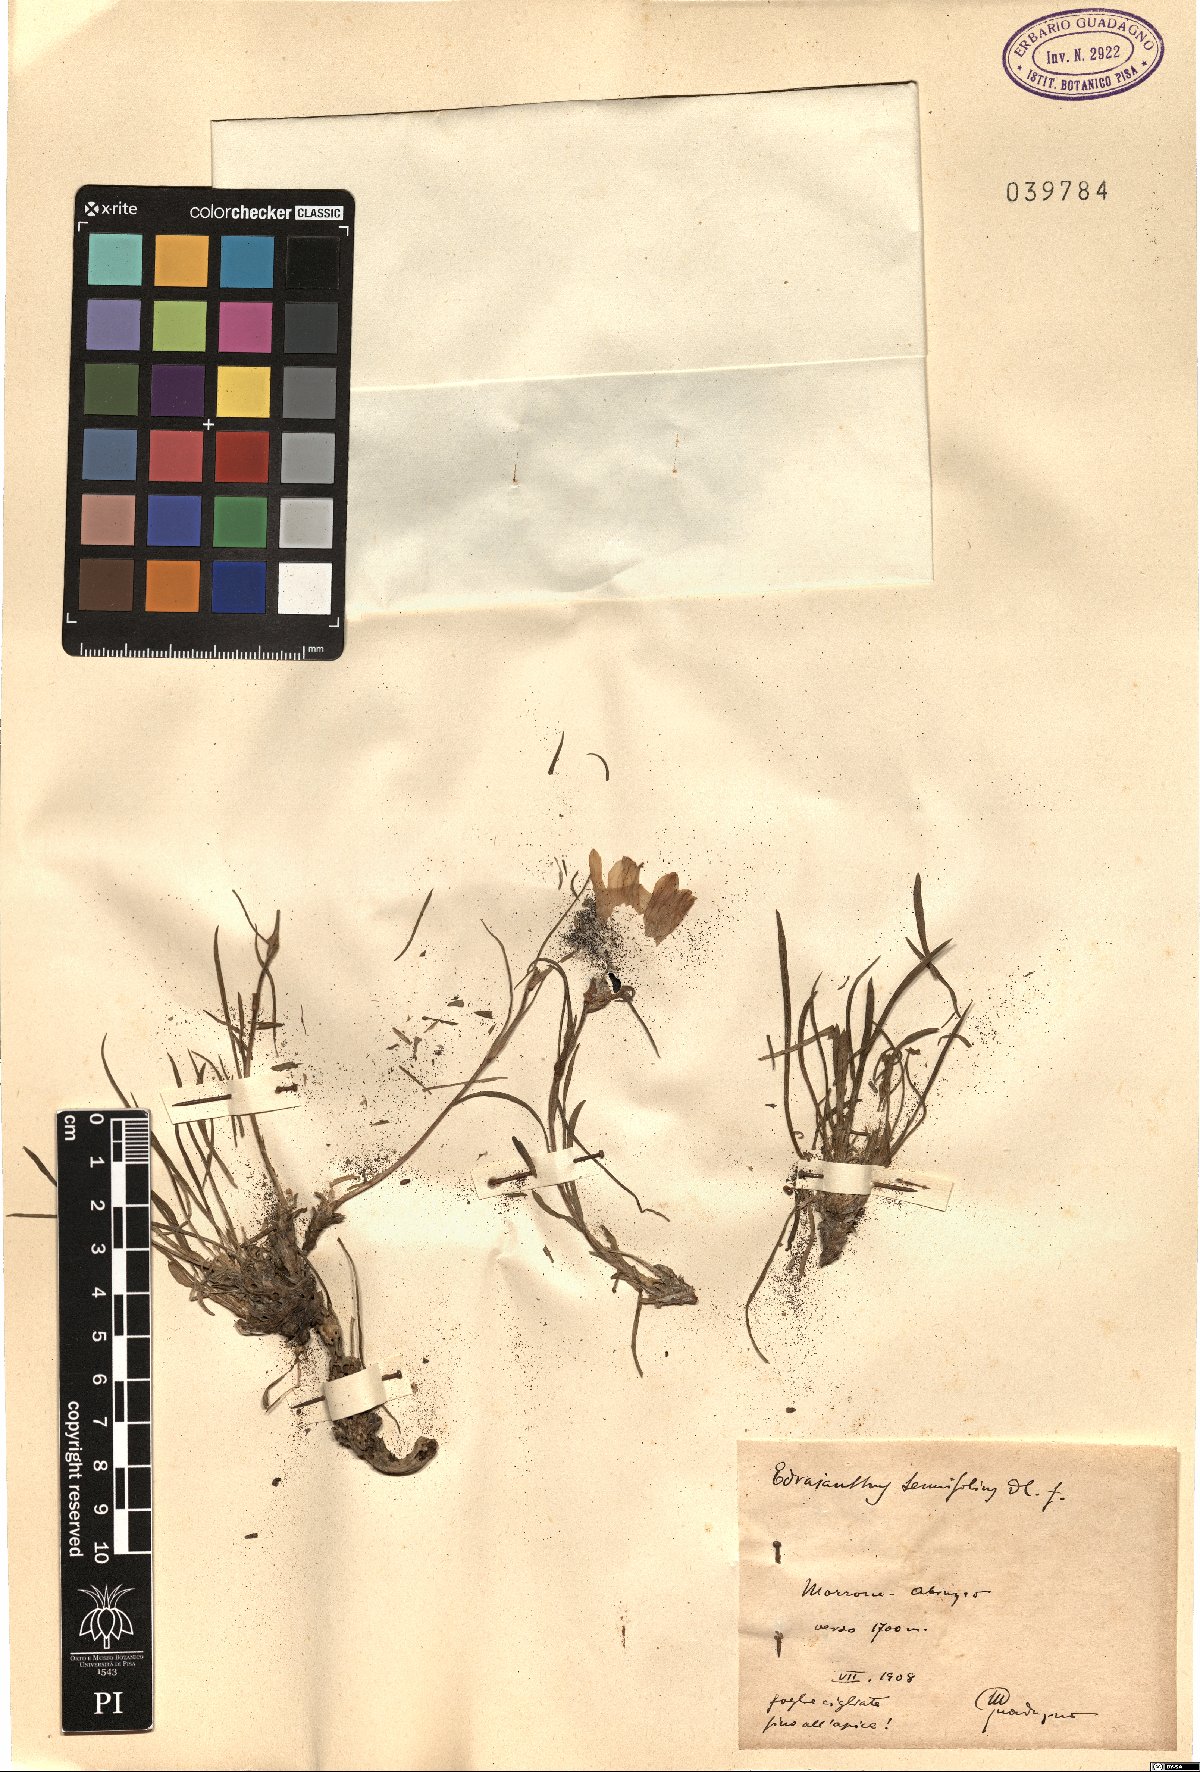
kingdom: Plantae
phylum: Tracheophyta
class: Magnoliopsida
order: Asterales
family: Campanulaceae
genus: Edraianthus
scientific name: Edraianthus tenuifolius
